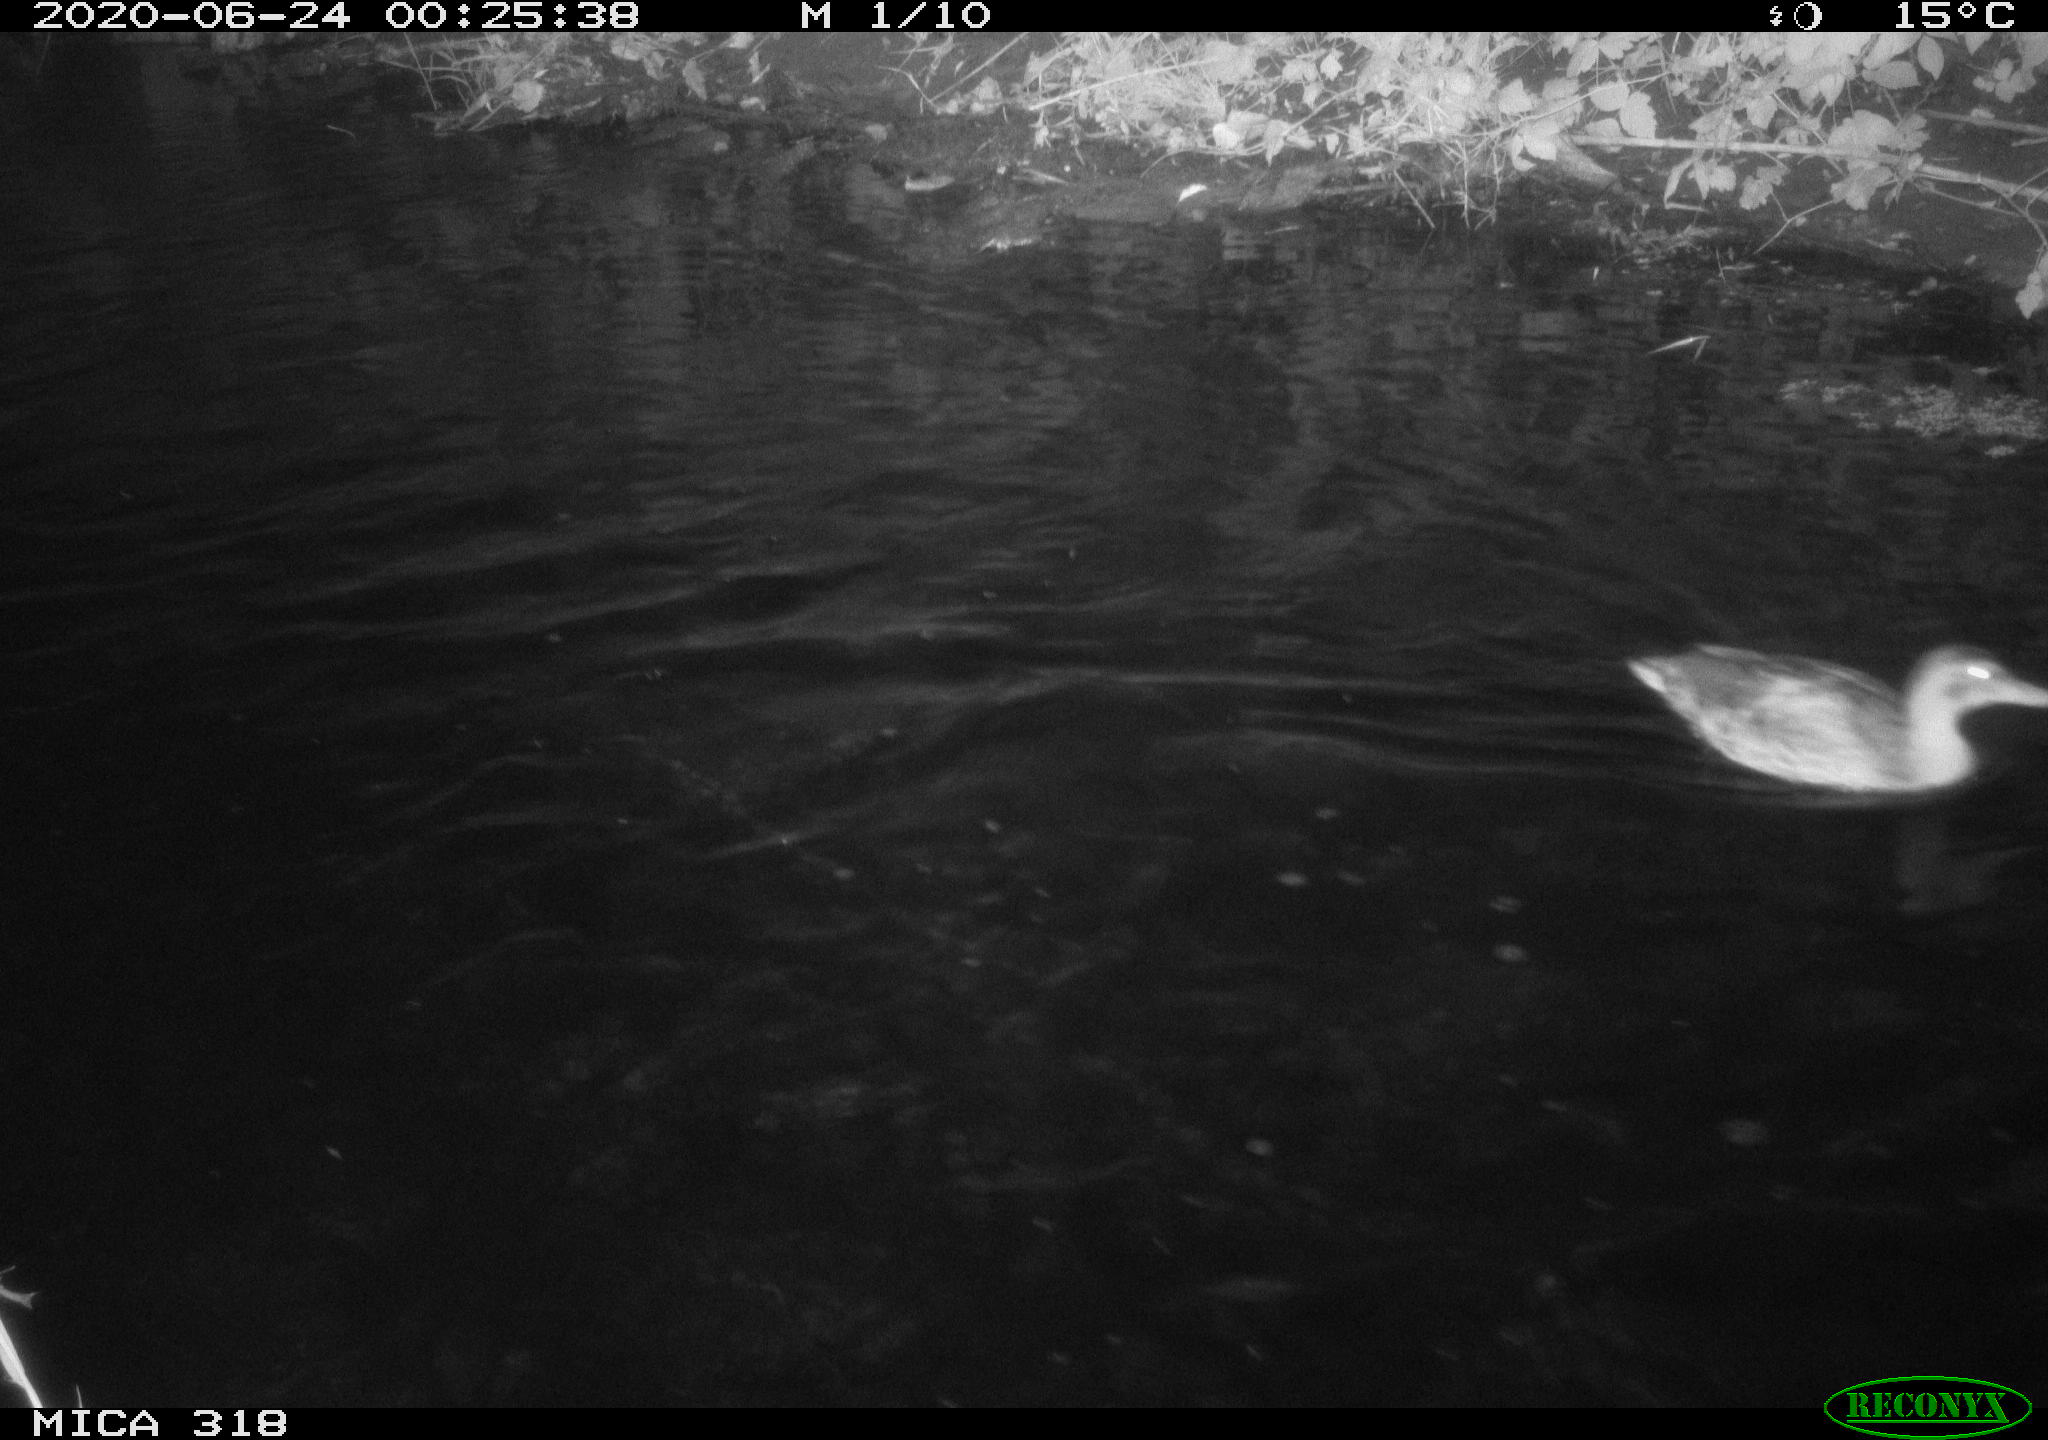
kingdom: Animalia
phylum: Chordata
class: Aves
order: Anseriformes
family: Anatidae
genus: Anas
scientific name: Anas platyrhynchos
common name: Mallard
